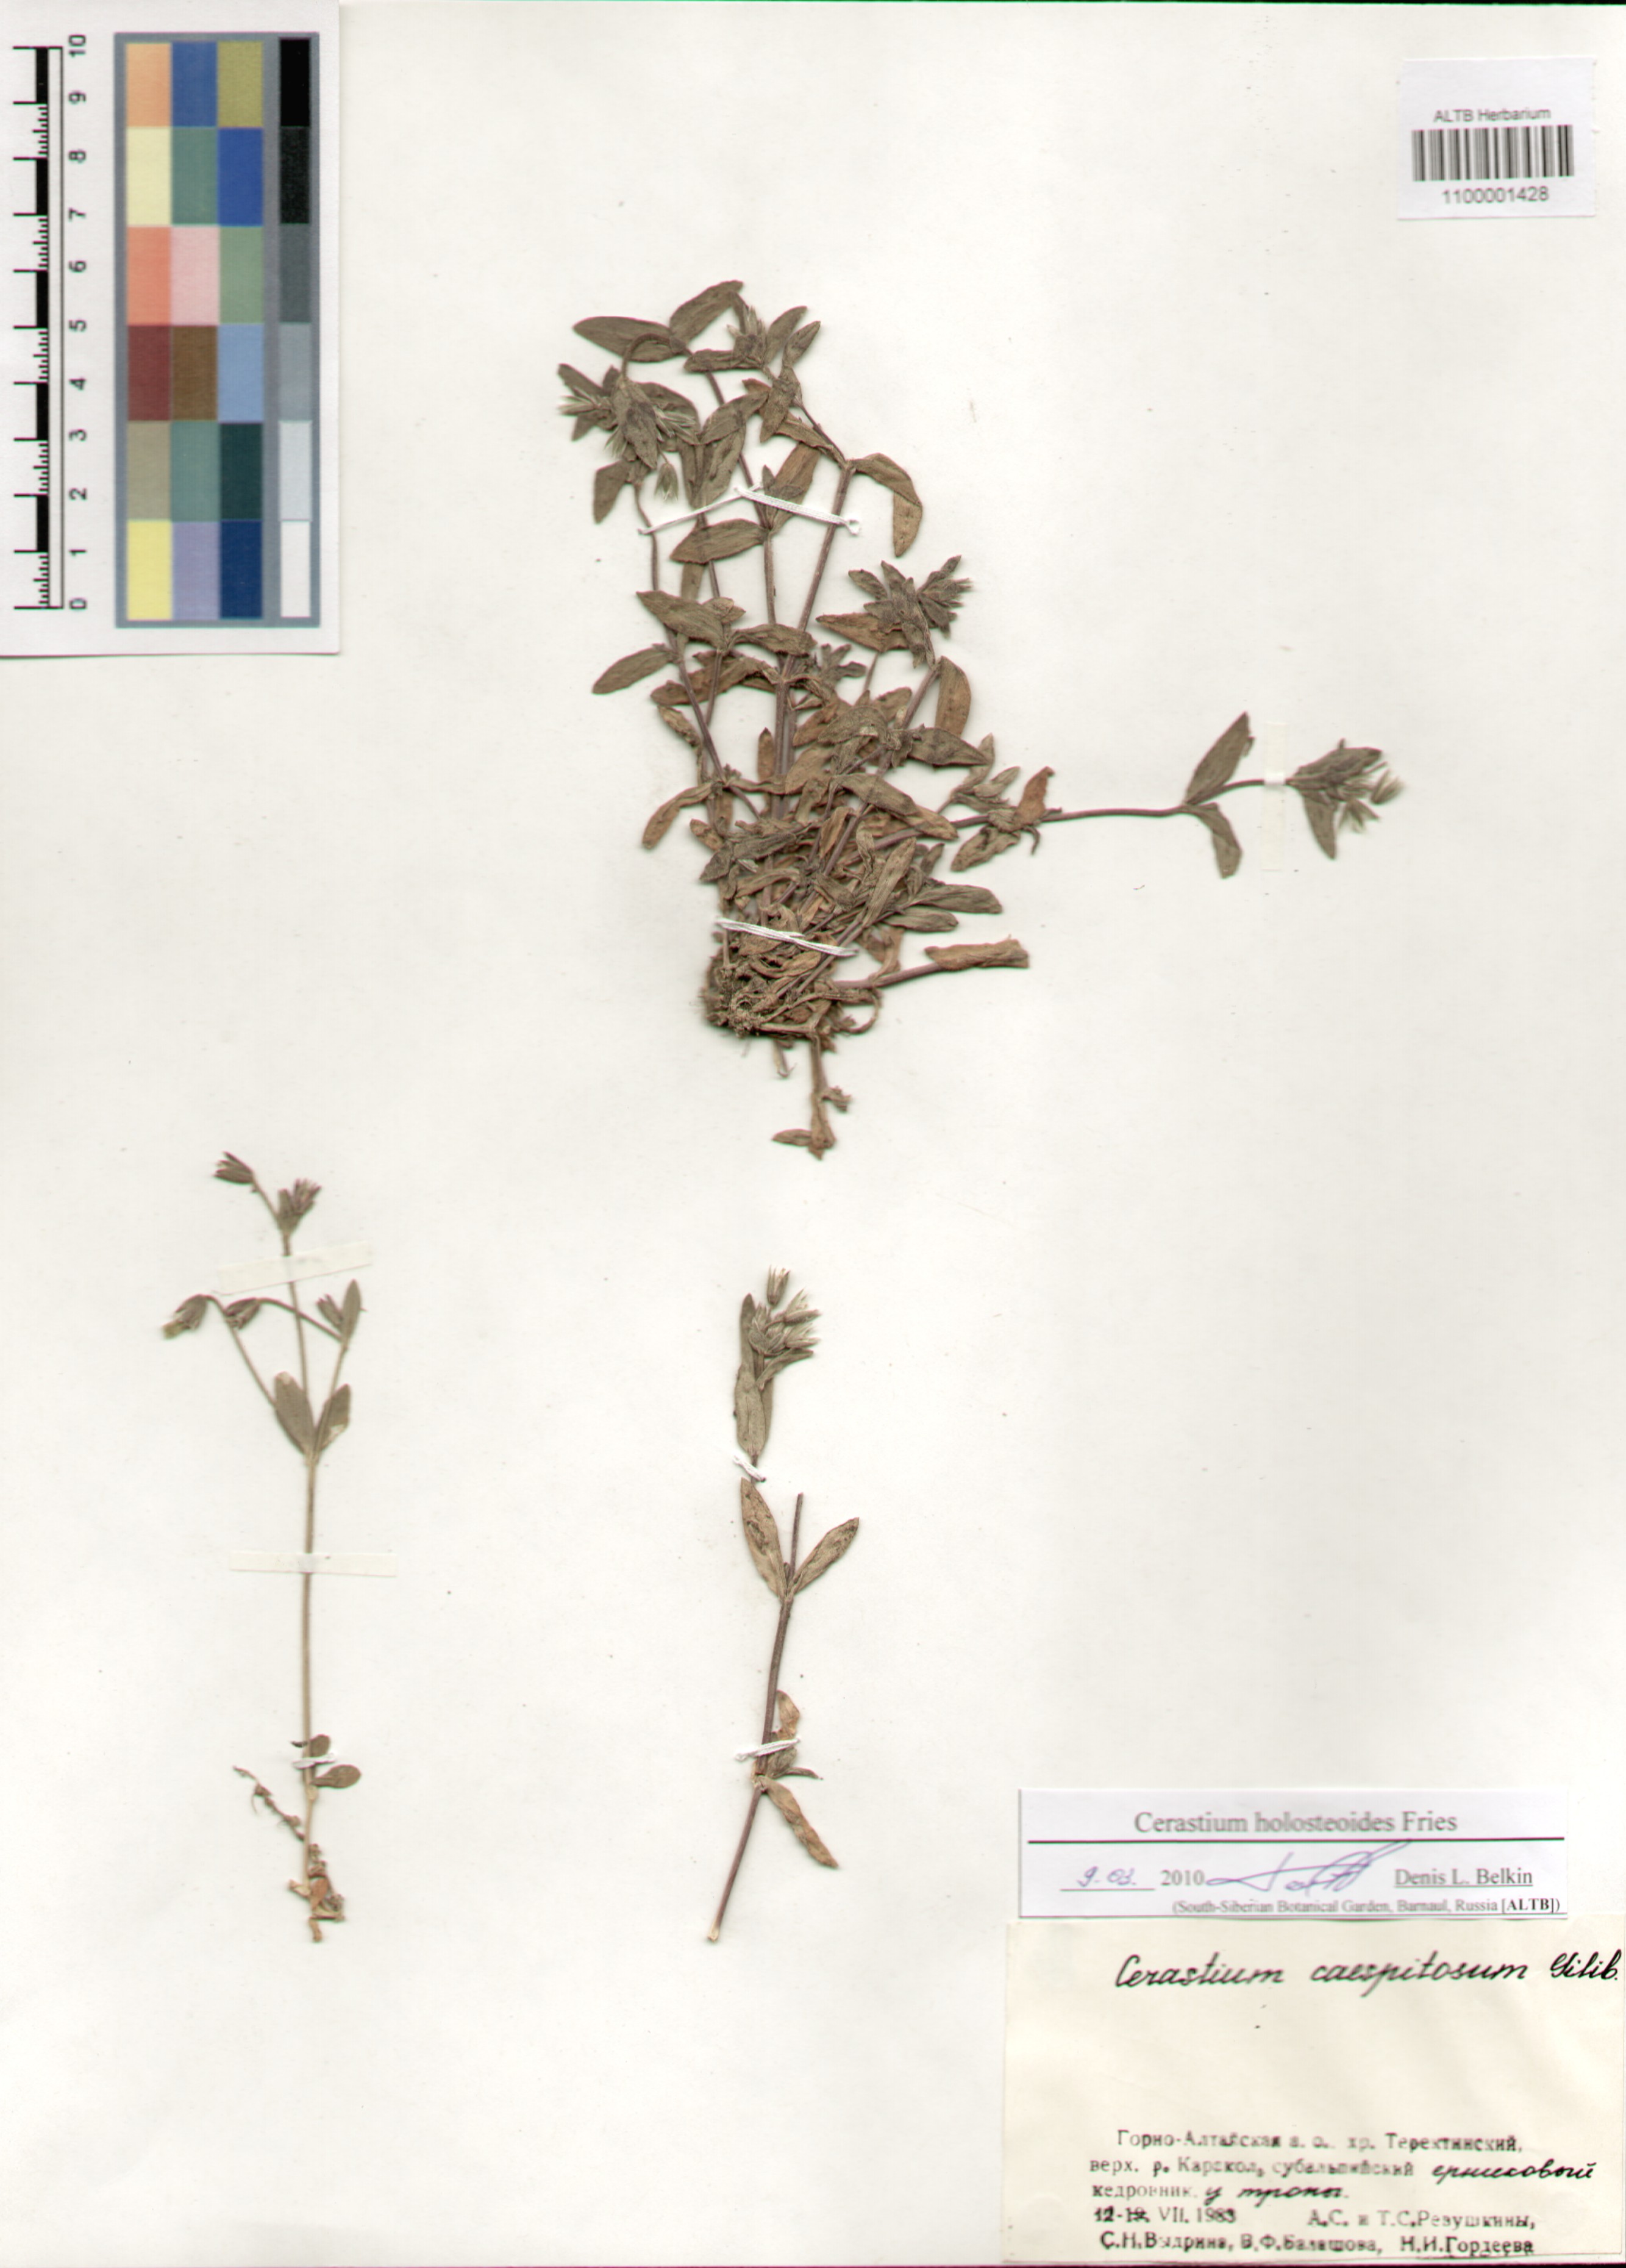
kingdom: Plantae
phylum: Tracheophyta
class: Magnoliopsida
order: Caryophyllales
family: Caryophyllaceae
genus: Cerastium
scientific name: Cerastium holosteoides
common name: Big chickweed
